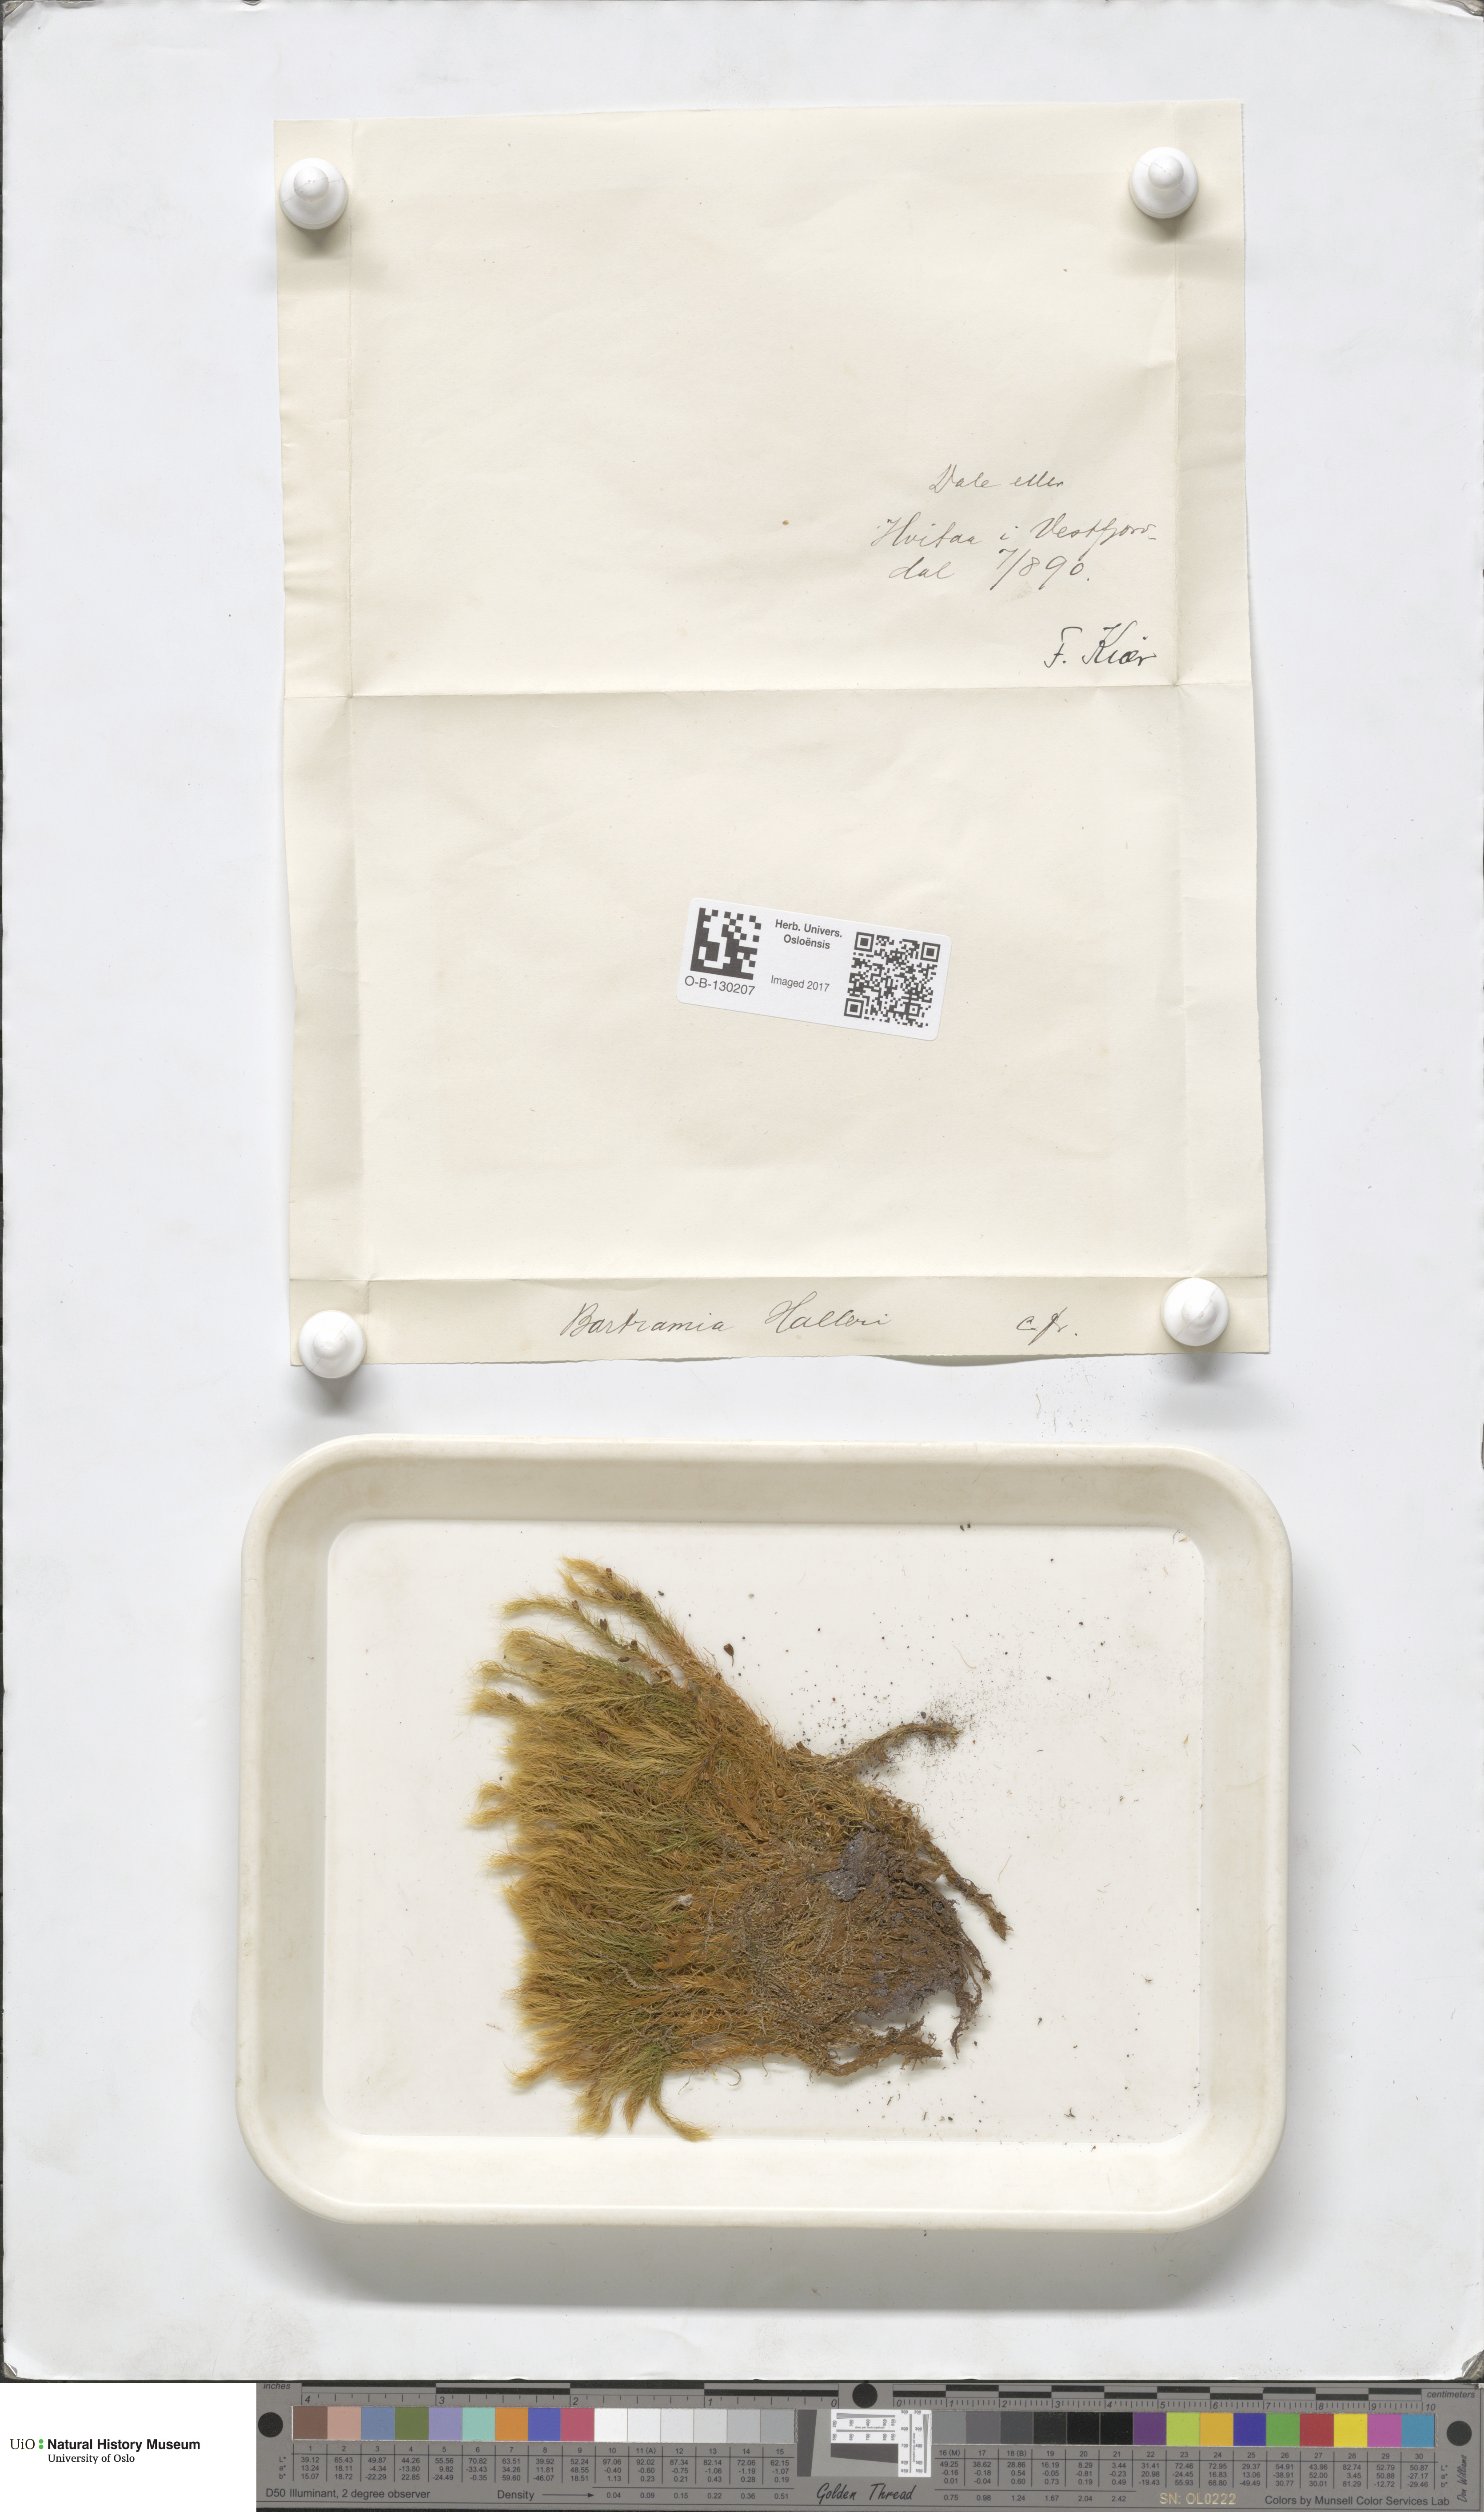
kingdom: Plantae
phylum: Bryophyta
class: Bryopsida
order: Bartramiales
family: Bartramiaceae
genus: Bartramia
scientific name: Bartramia halleriana
